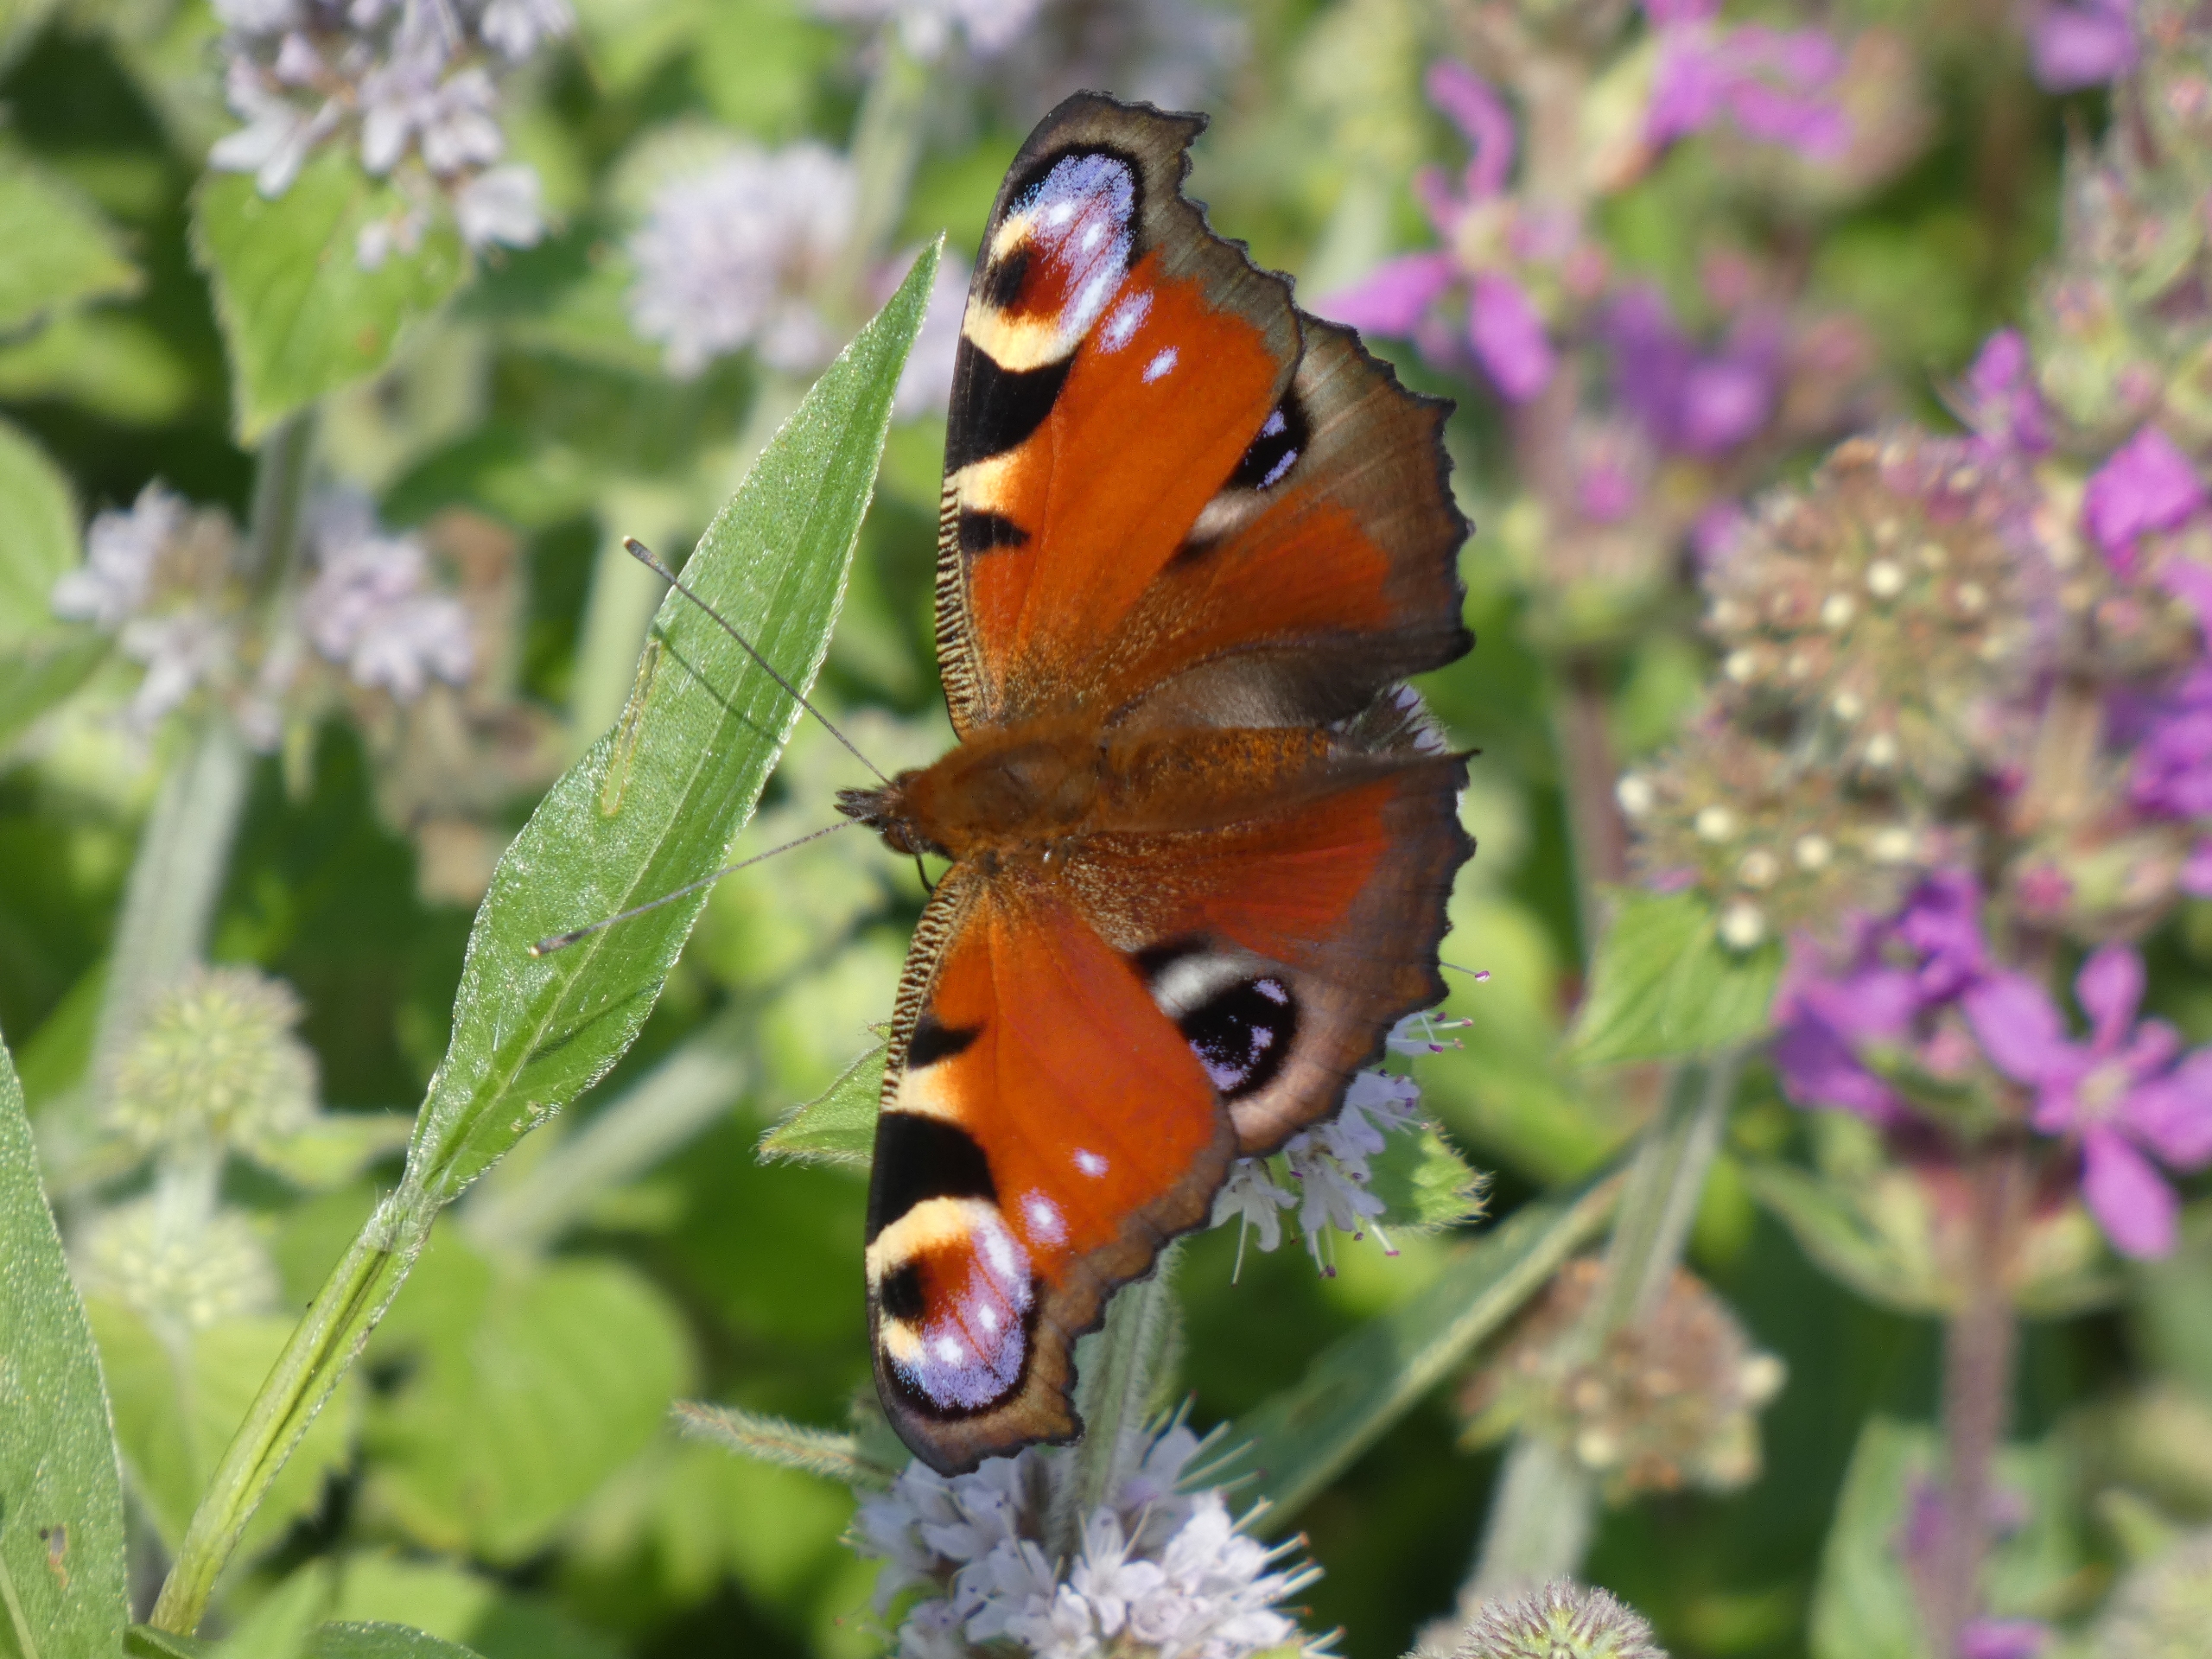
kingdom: Animalia
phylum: Arthropoda
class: Insecta
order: Lepidoptera
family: Nymphalidae
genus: Aglais
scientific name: Aglais io
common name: Dagpåfugleøje
